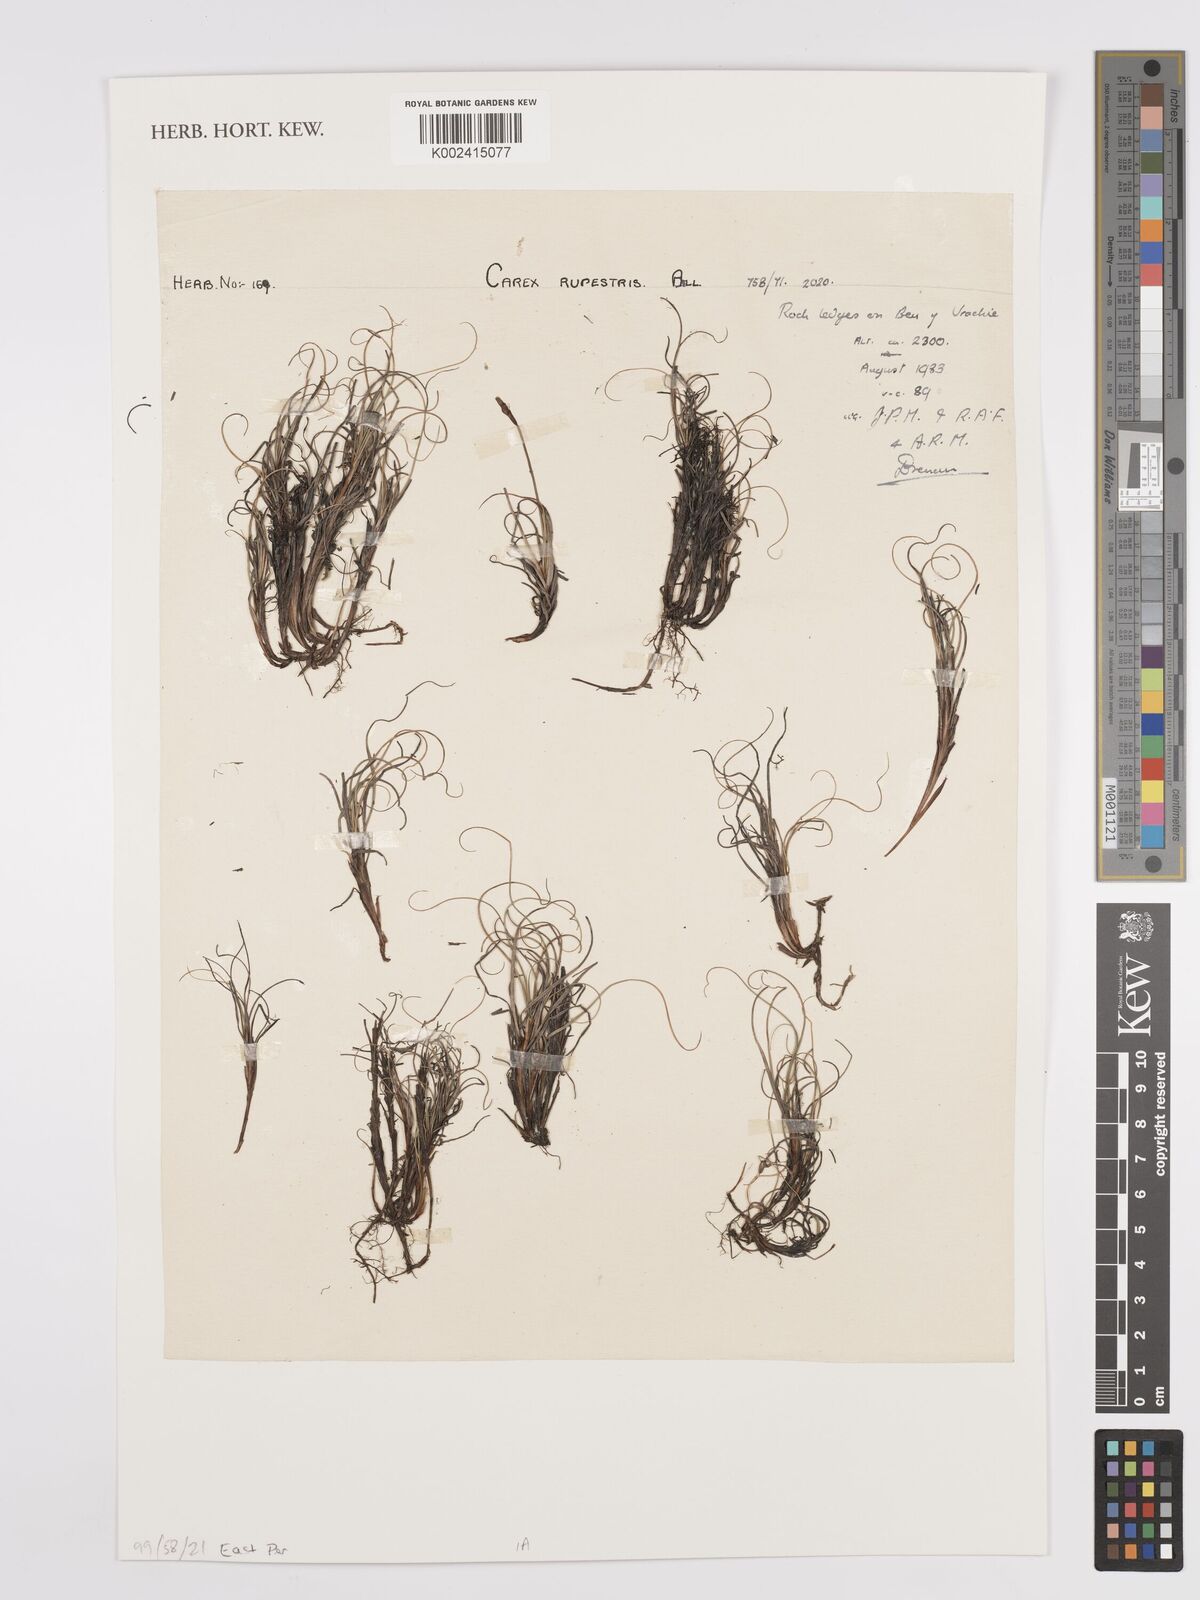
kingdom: Plantae
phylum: Tracheophyta
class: Liliopsida
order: Poales
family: Cyperaceae
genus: Carex
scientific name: Carex rupestris
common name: Rock sedge
